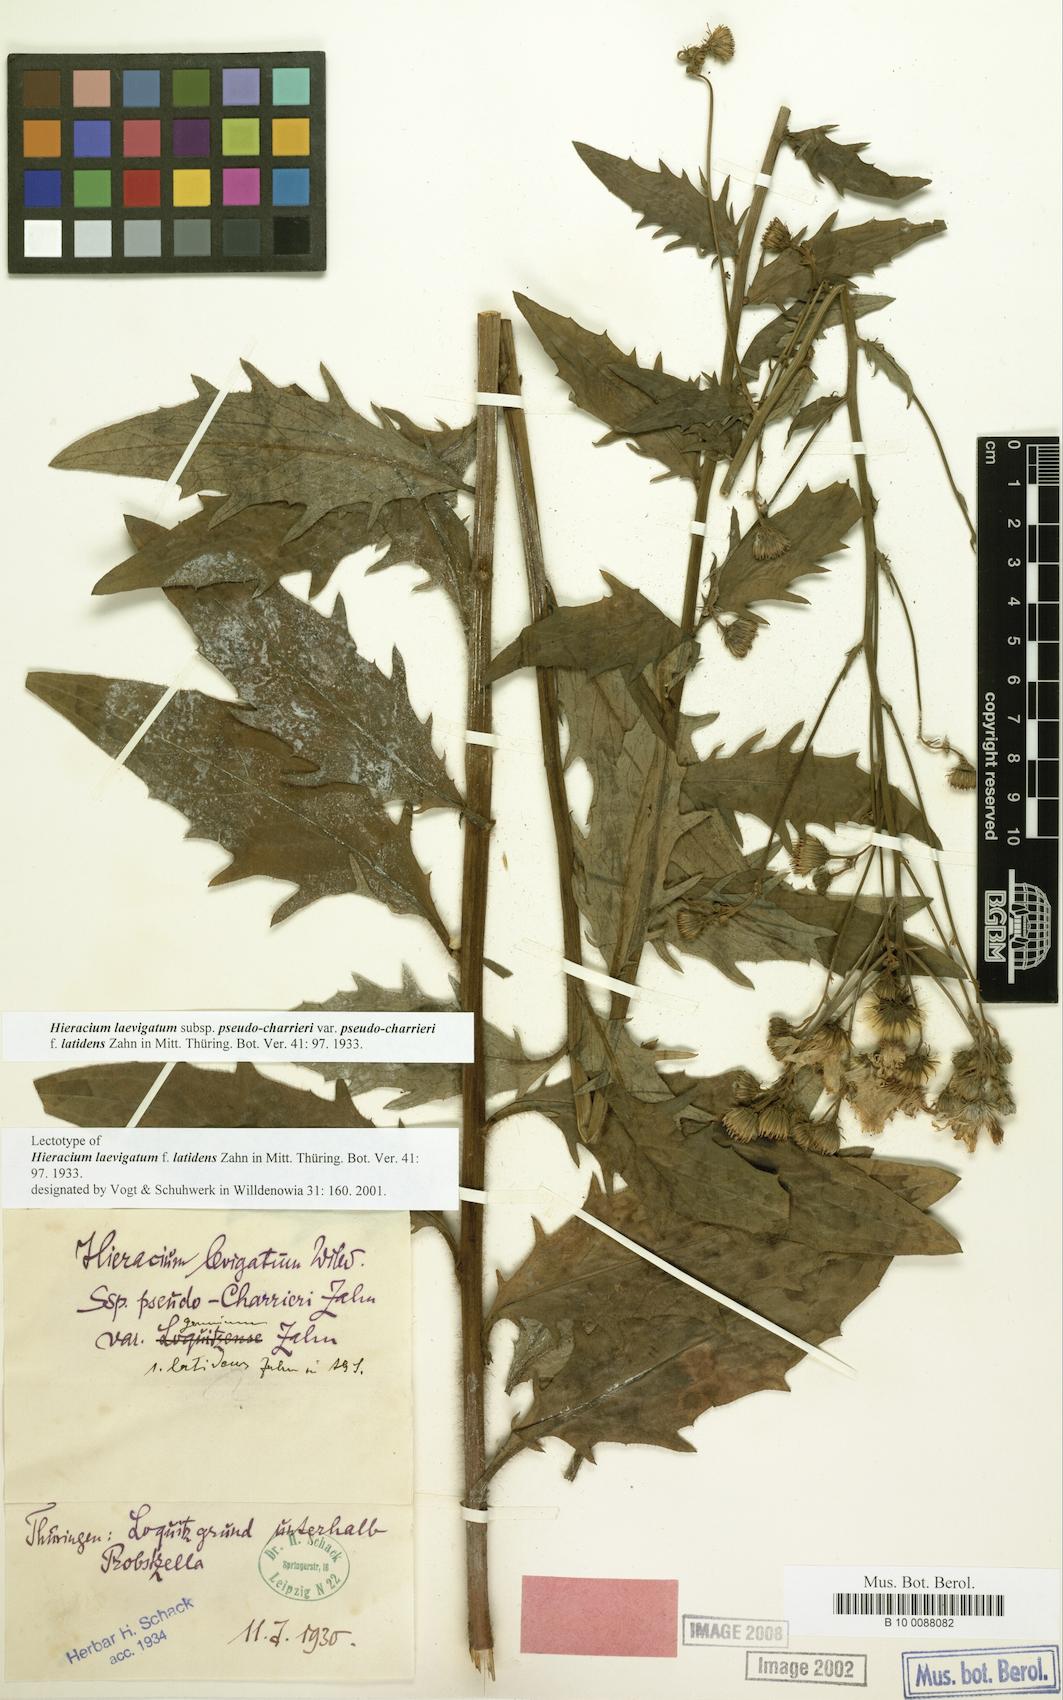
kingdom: Plantae
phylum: Tracheophyta
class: Magnoliopsida
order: Asterales
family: Asteraceae
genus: Hieracium
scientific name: Hieracium laevigatum
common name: Smooth hawkweed
